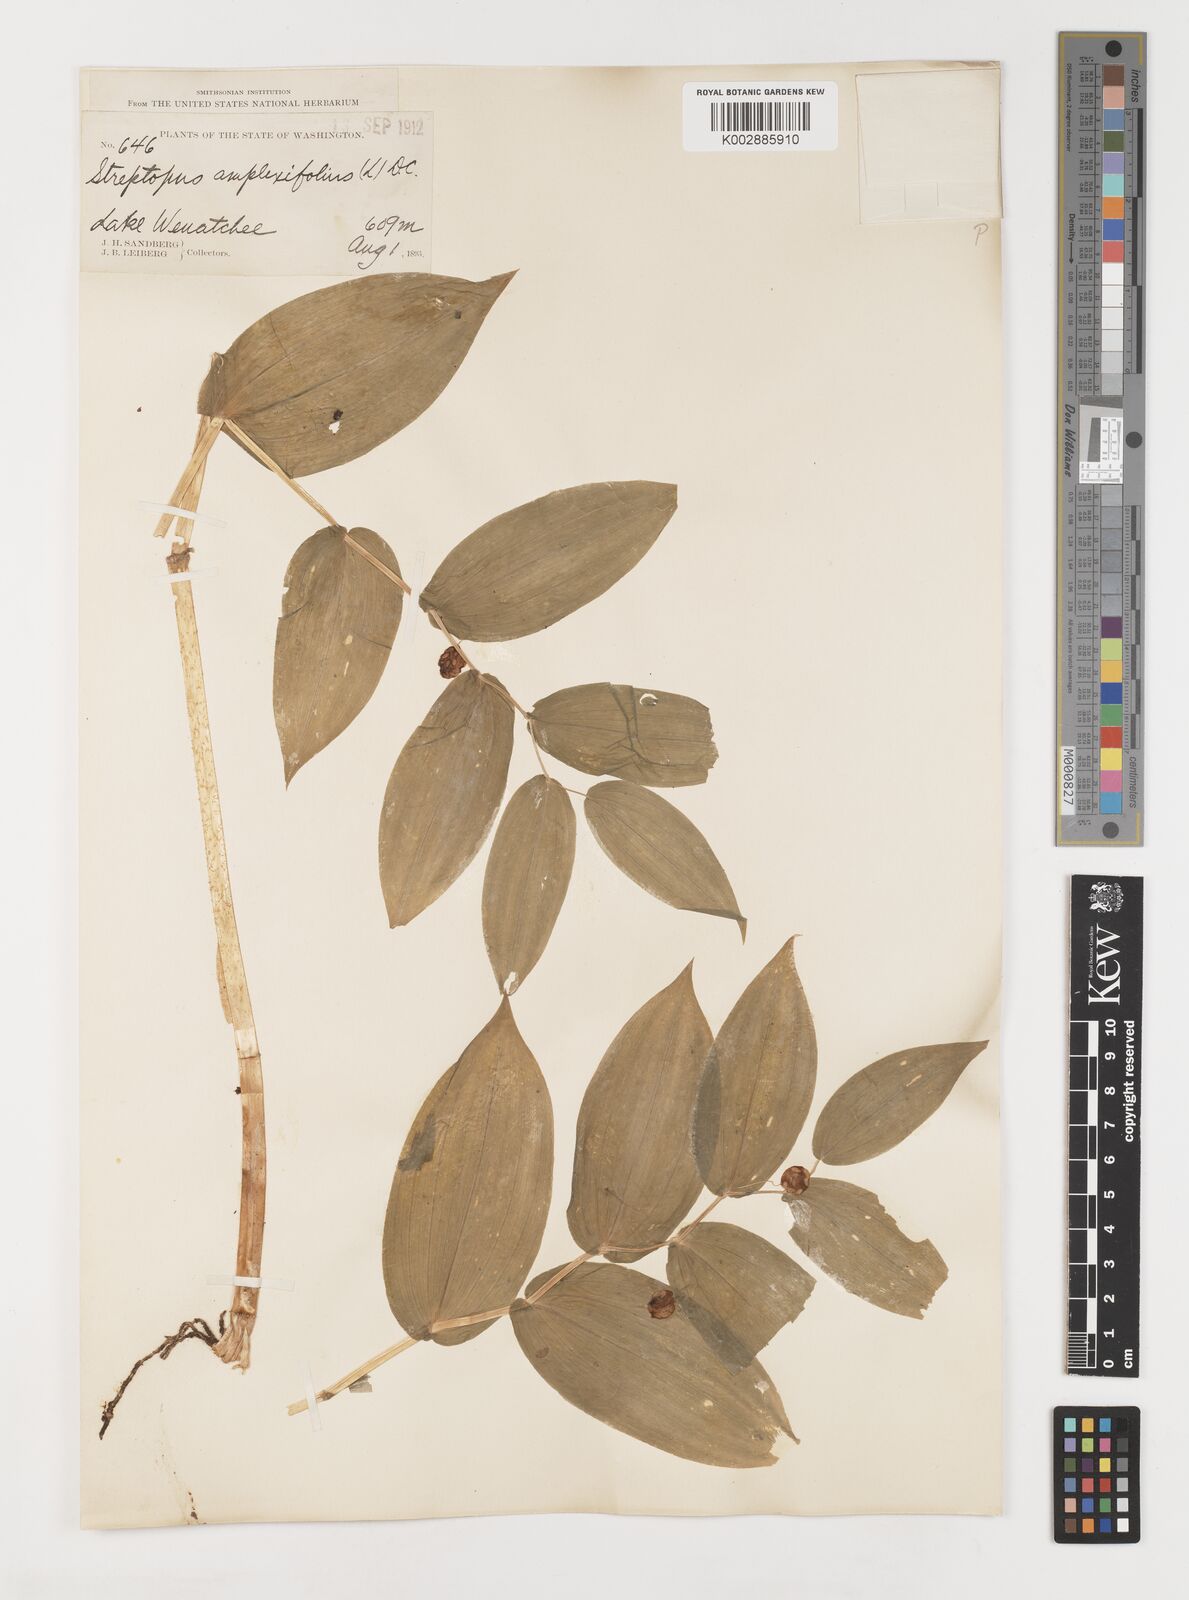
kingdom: Plantae
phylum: Tracheophyta
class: Liliopsida
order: Liliales
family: Liliaceae
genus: Streptopus
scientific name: Streptopus amplexifolius
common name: Clasp twisted stalk
